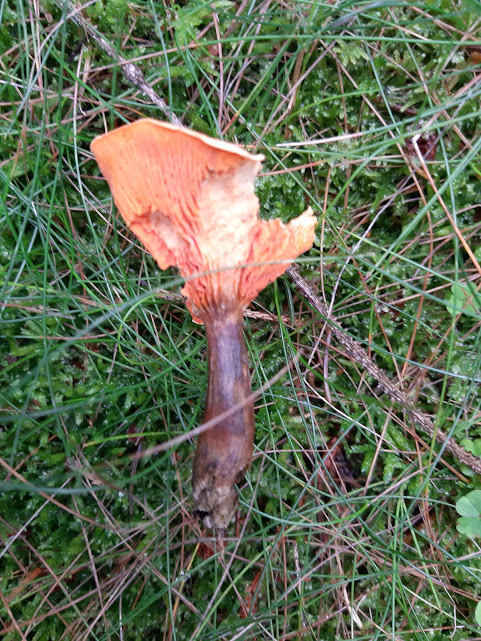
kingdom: Fungi
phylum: Basidiomycota
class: Agaricomycetes
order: Boletales
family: Hygrophoropsidaceae
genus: Hygrophoropsis
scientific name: Hygrophoropsis aurantiaca
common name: almindelig orangekantarel
